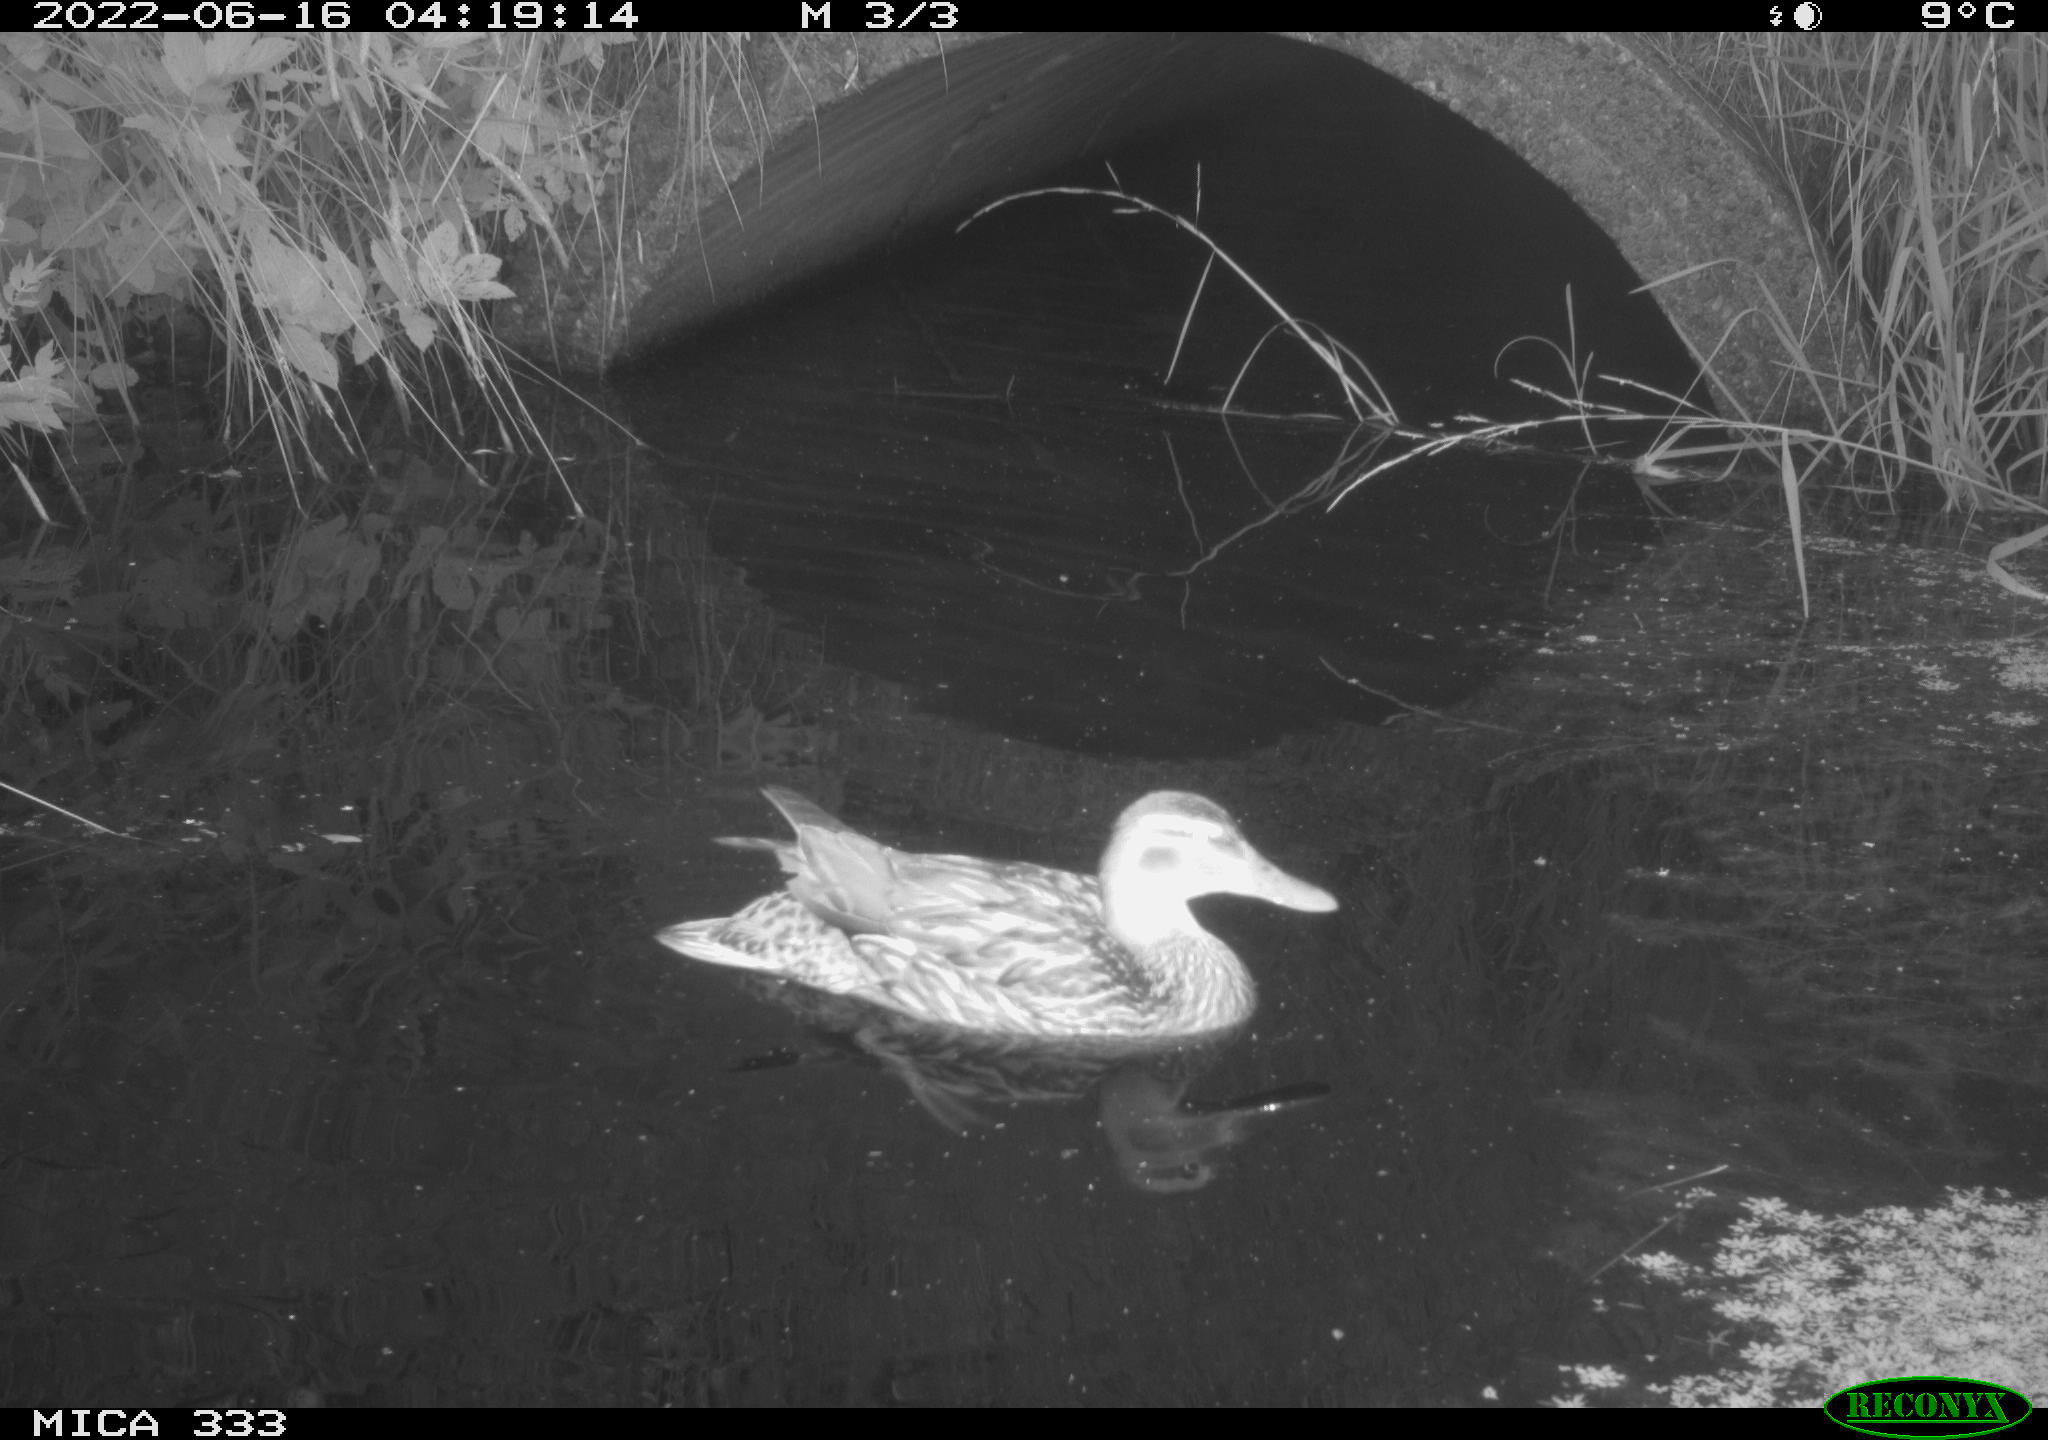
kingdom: Animalia
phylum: Chordata
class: Aves
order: Anseriformes
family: Anatidae
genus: Anas
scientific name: Anas platyrhynchos
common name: Mallard
